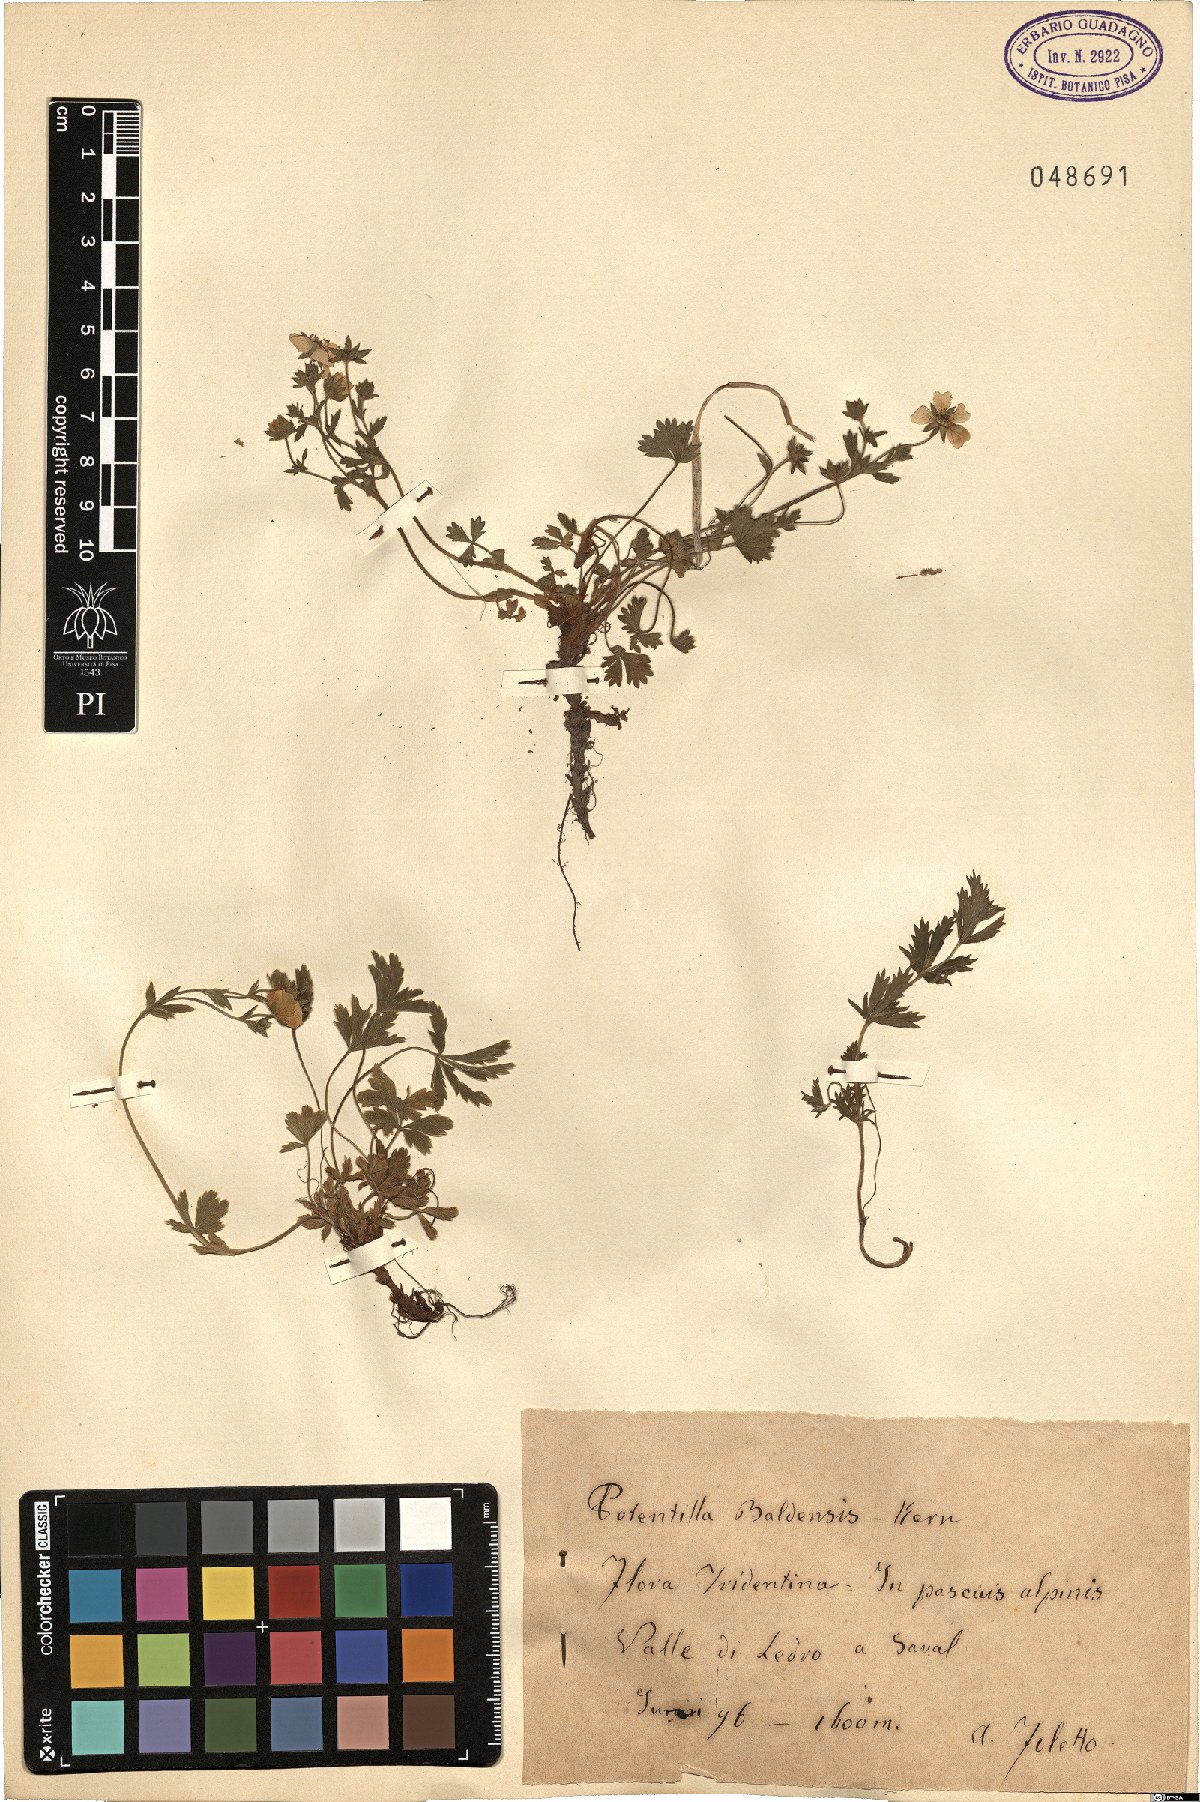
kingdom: Plantae
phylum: Tracheophyta
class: Magnoliopsida
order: Rosales
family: Rosaceae
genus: Potentilla
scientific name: Potentilla crantzii
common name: Alpine cinquefoil
